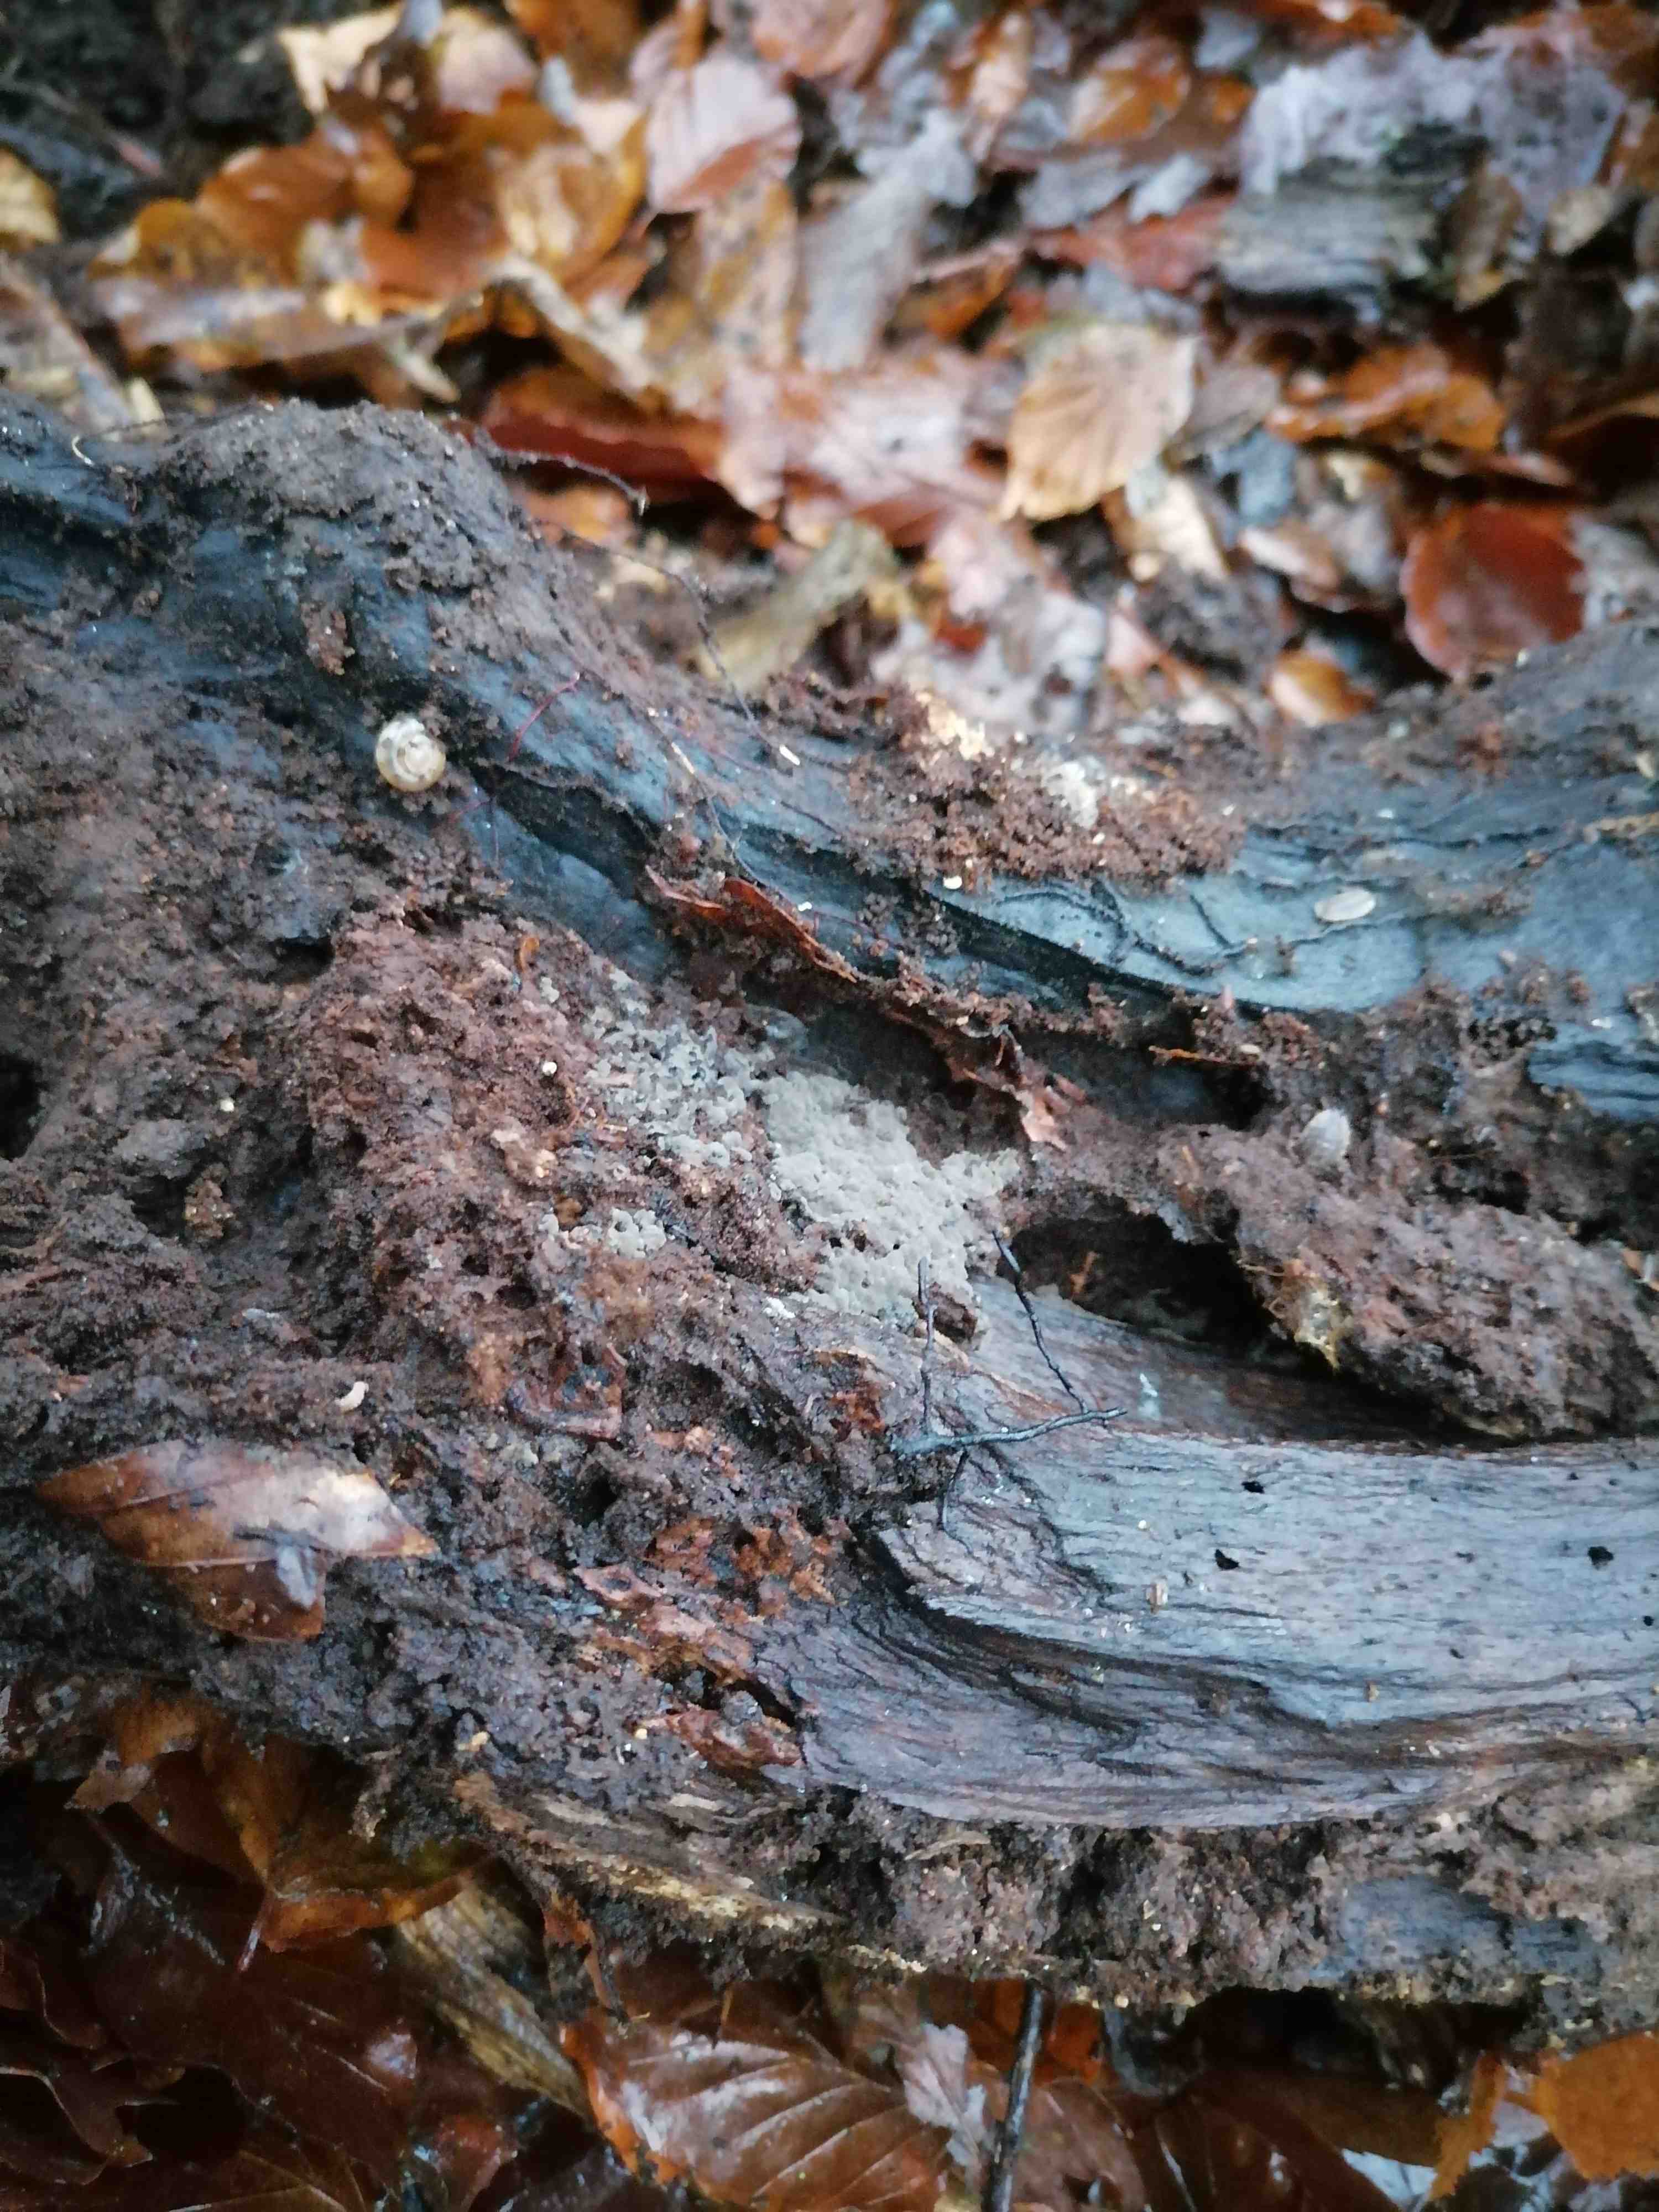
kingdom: Fungi
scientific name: Fungi
